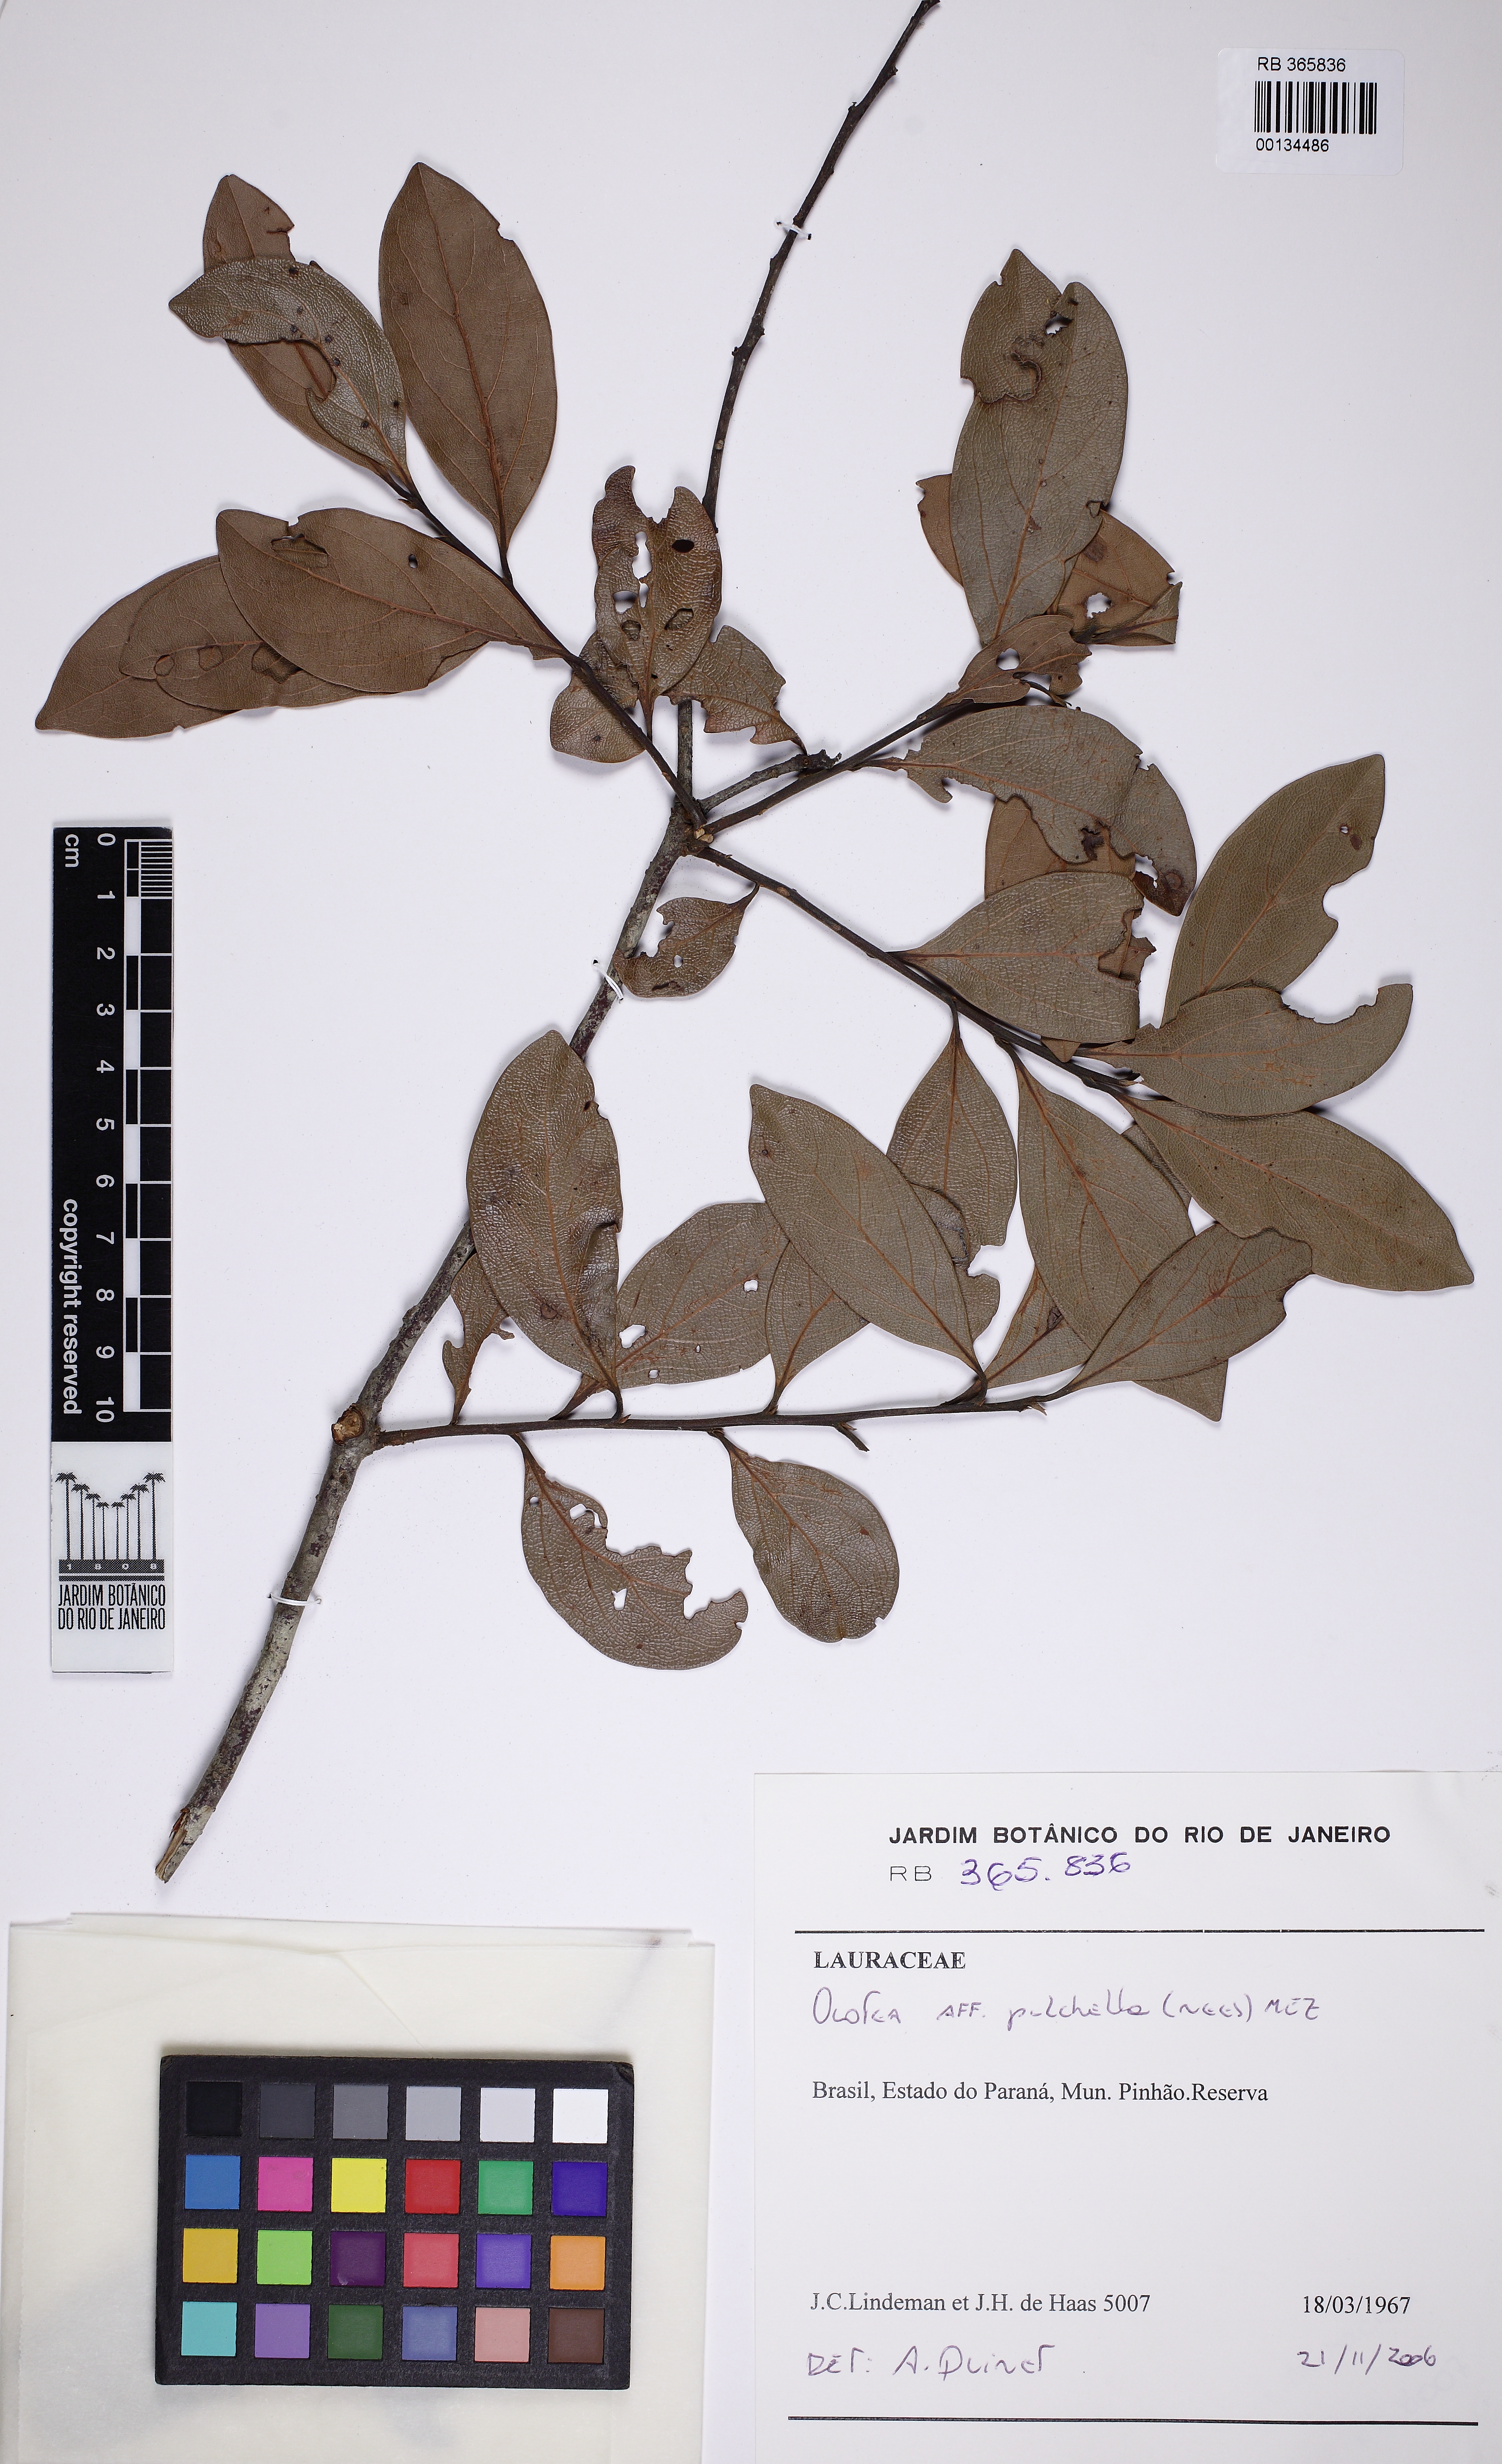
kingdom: Plantae
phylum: Tracheophyta
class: Magnoliopsida
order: Laurales
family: Lauraceae
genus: Mespilodaphne
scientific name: Mespilodaphne pulchella
